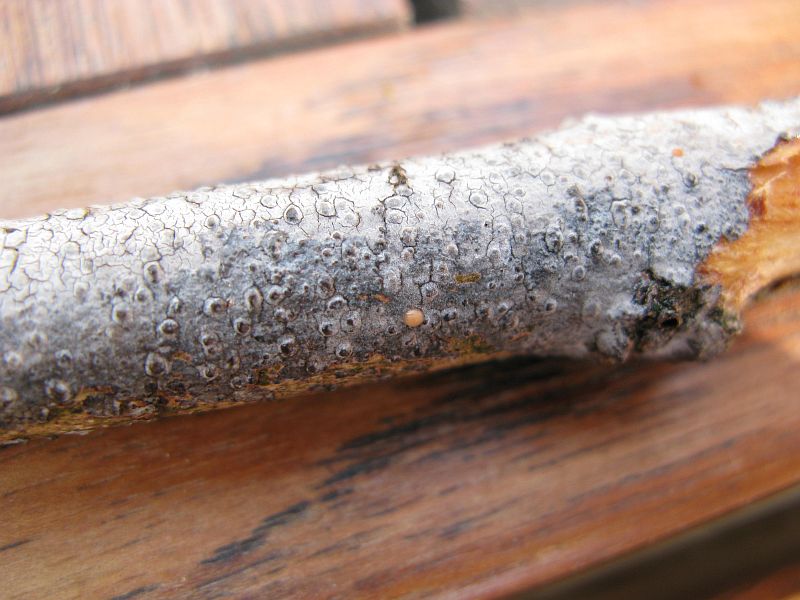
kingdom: Fungi
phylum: Basidiomycota
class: Agaricomycetes
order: Russulales
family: Peniophoraceae
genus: Peniophora
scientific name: Peniophora lycii
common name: grynet voksskind
